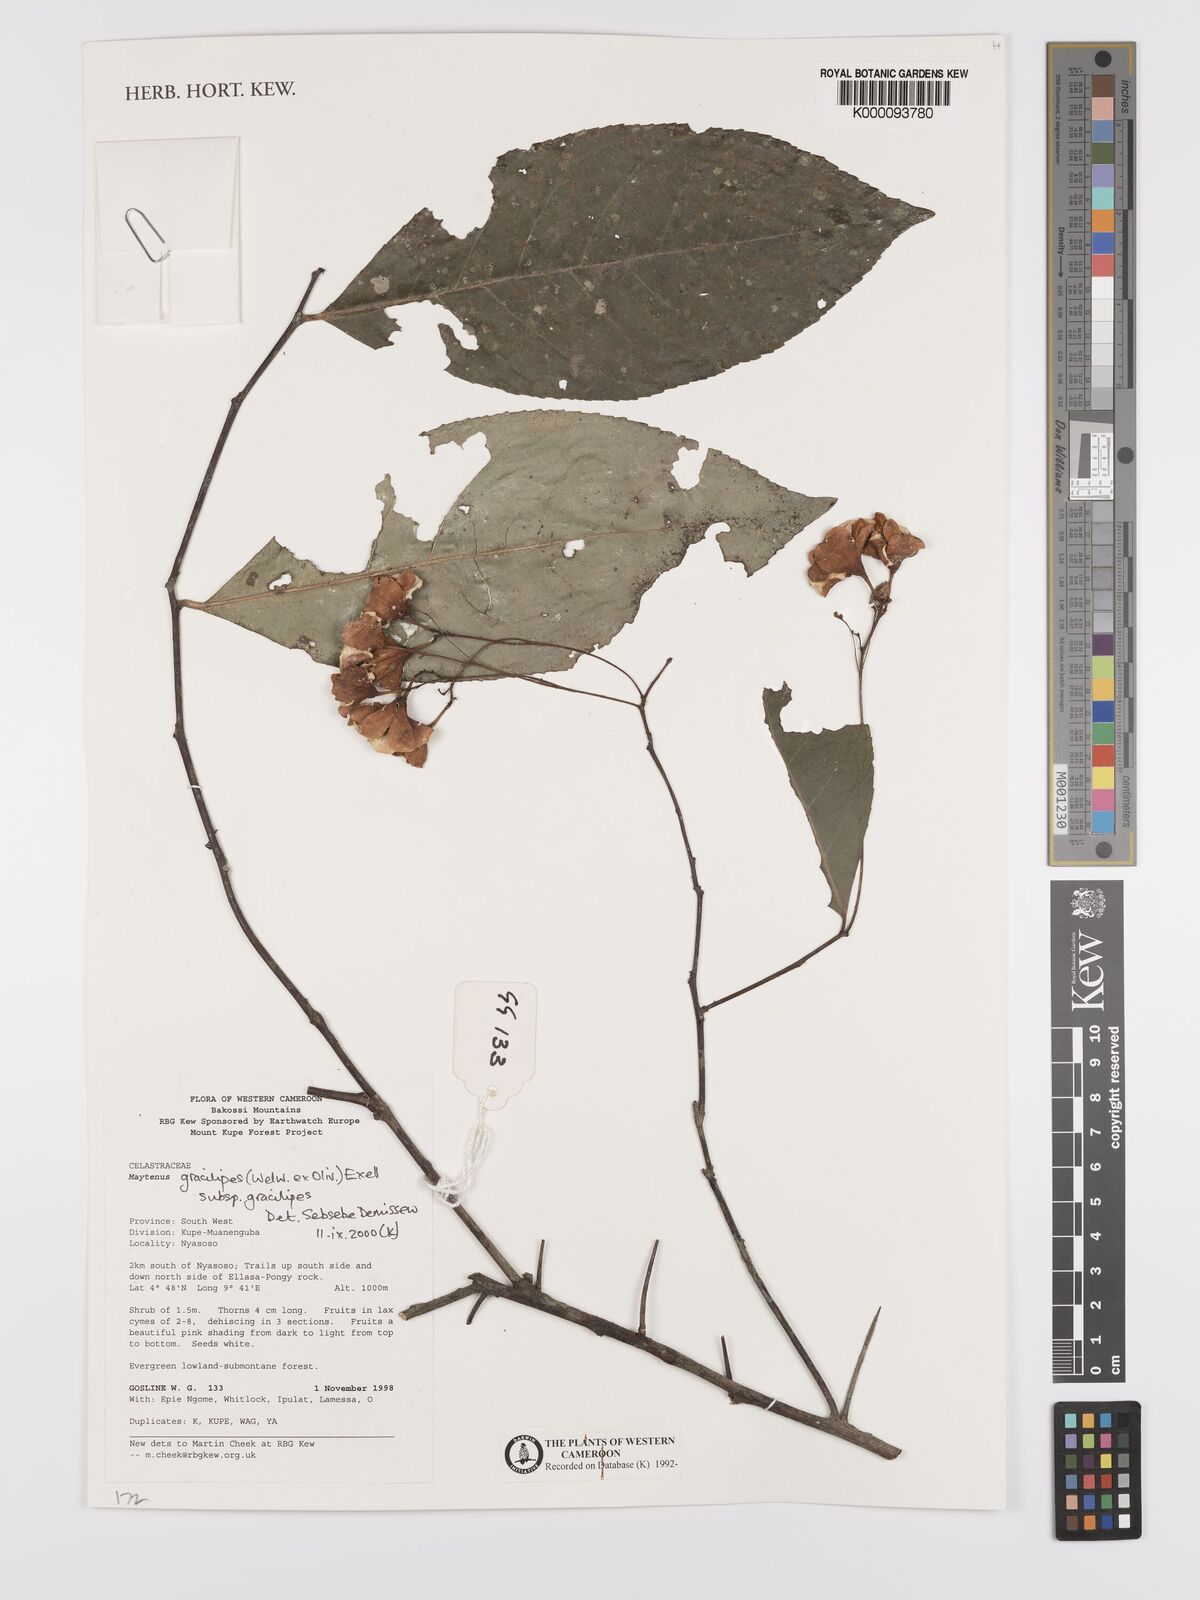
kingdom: Plantae
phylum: Tracheophyta
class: Magnoliopsida
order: Celastrales
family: Celastraceae
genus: Gymnosporia
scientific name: Gymnosporia gracilipes
